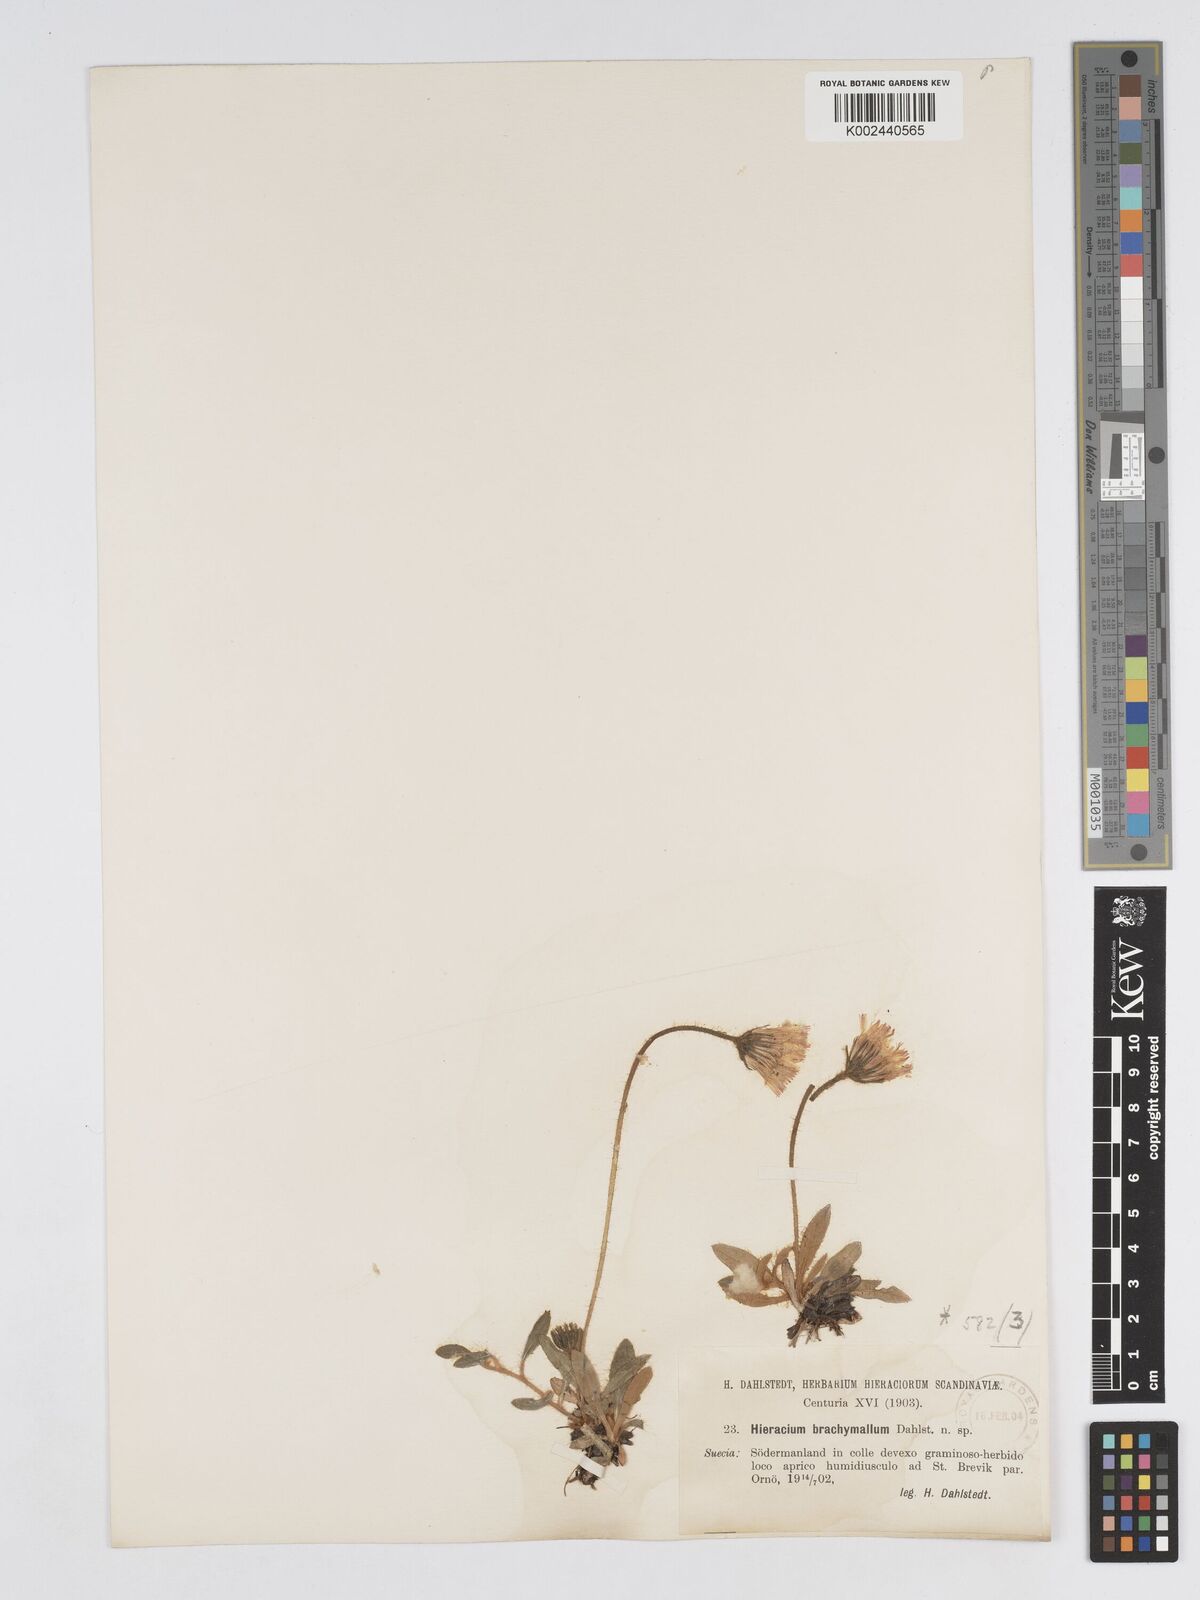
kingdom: Plantae
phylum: Tracheophyta
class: Magnoliopsida
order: Asterales
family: Asteraceae
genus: Pilosella
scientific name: Pilosella longisquama
